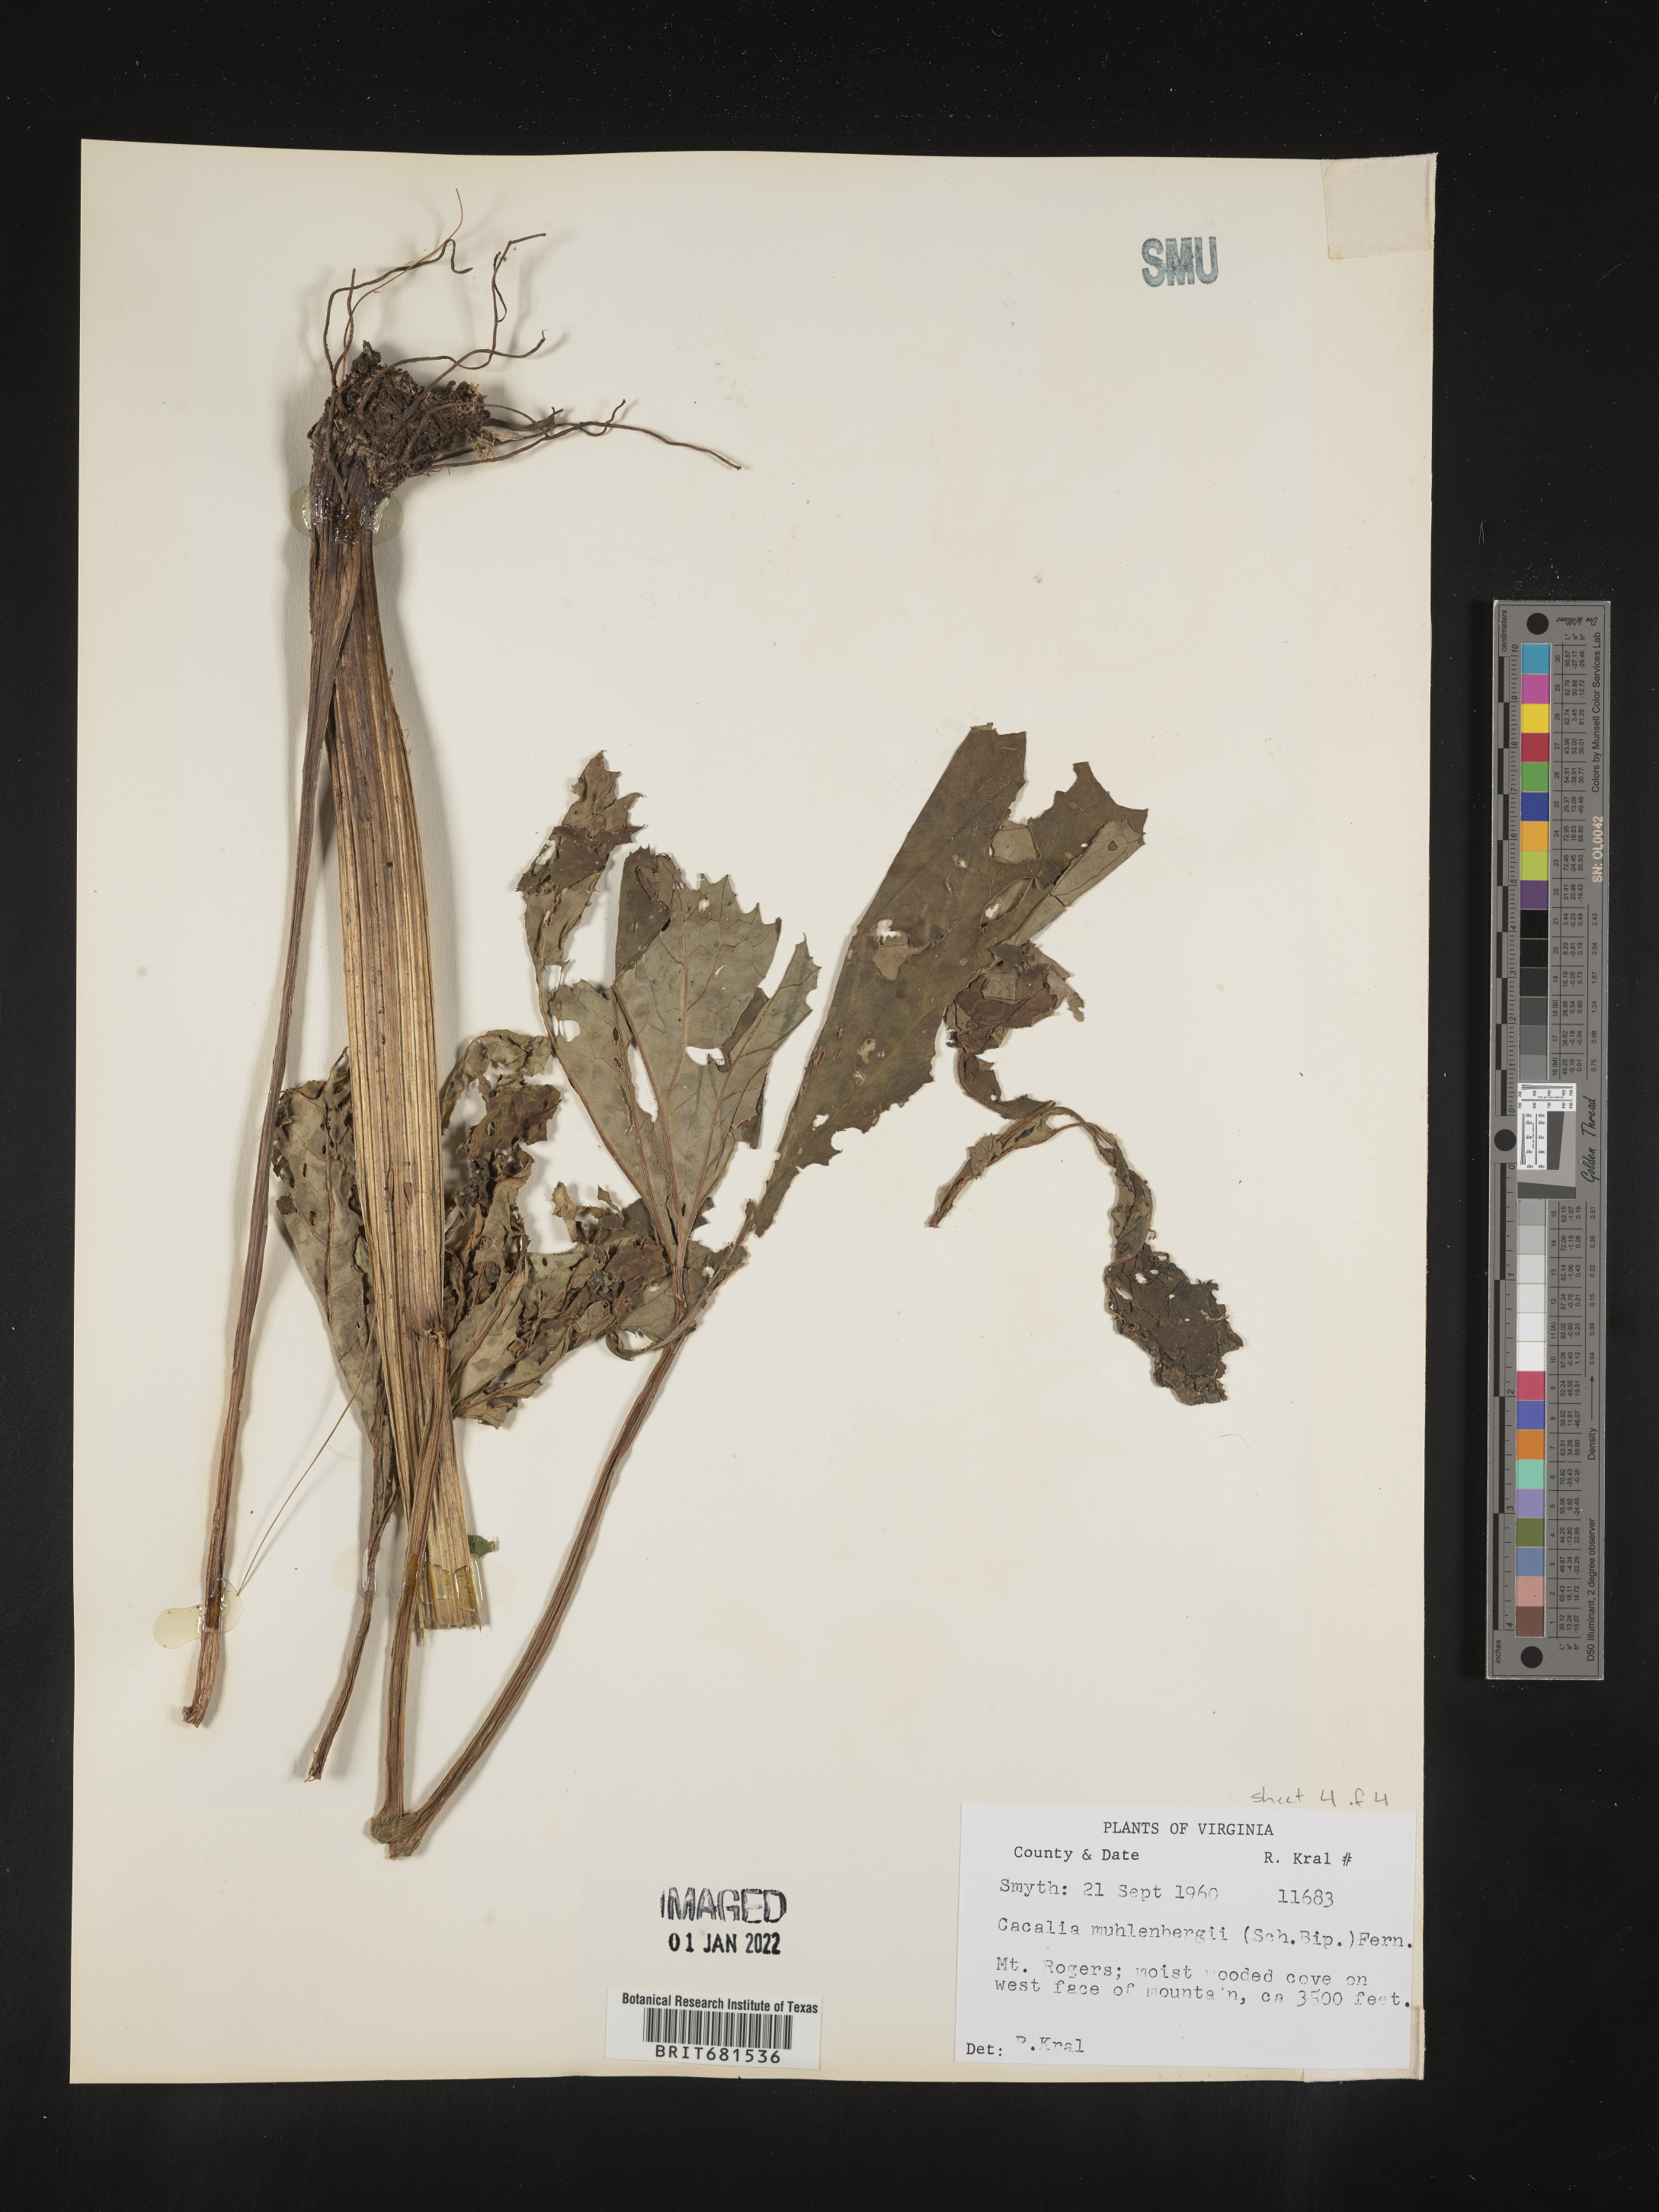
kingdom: Plantae
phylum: Tracheophyta
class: Magnoliopsida
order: Asterales
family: Asteraceae
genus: Arnoglossum
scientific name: Arnoglossum reniforme
